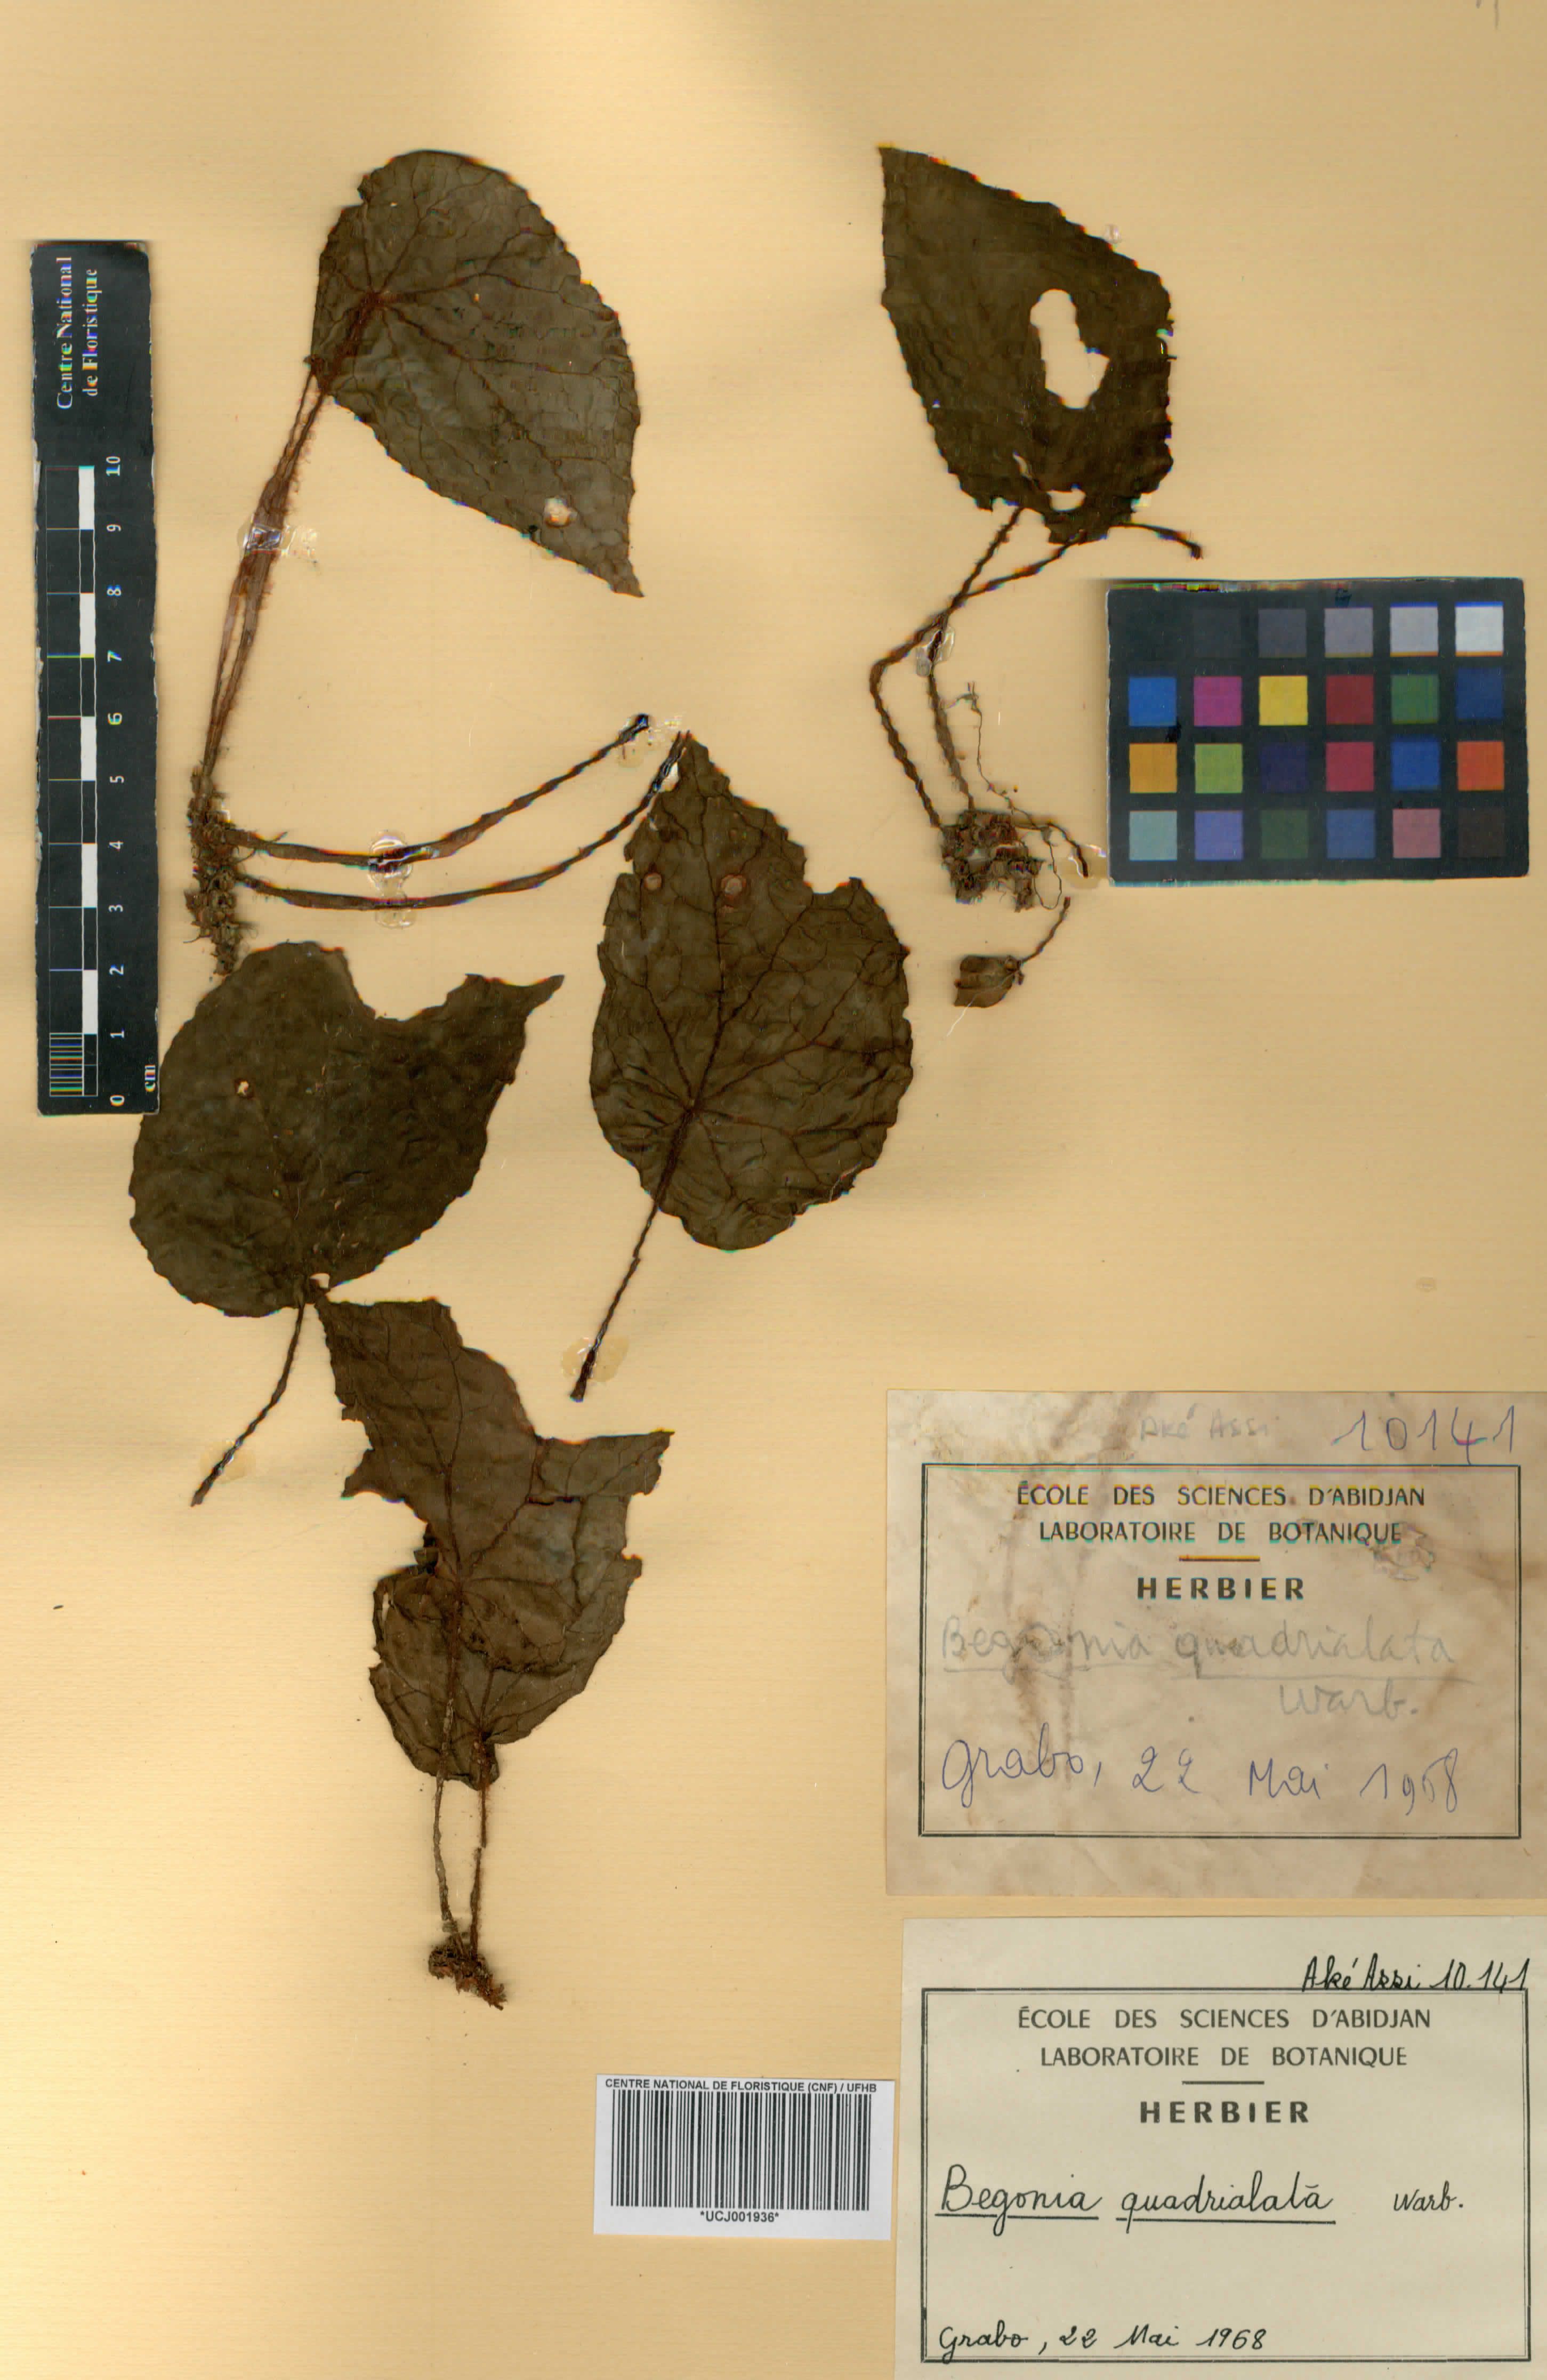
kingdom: Plantae
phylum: Tracheophyta
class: Magnoliopsida
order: Cucurbitales
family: Begoniaceae
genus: Begonia
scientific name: Begonia quadrialata
